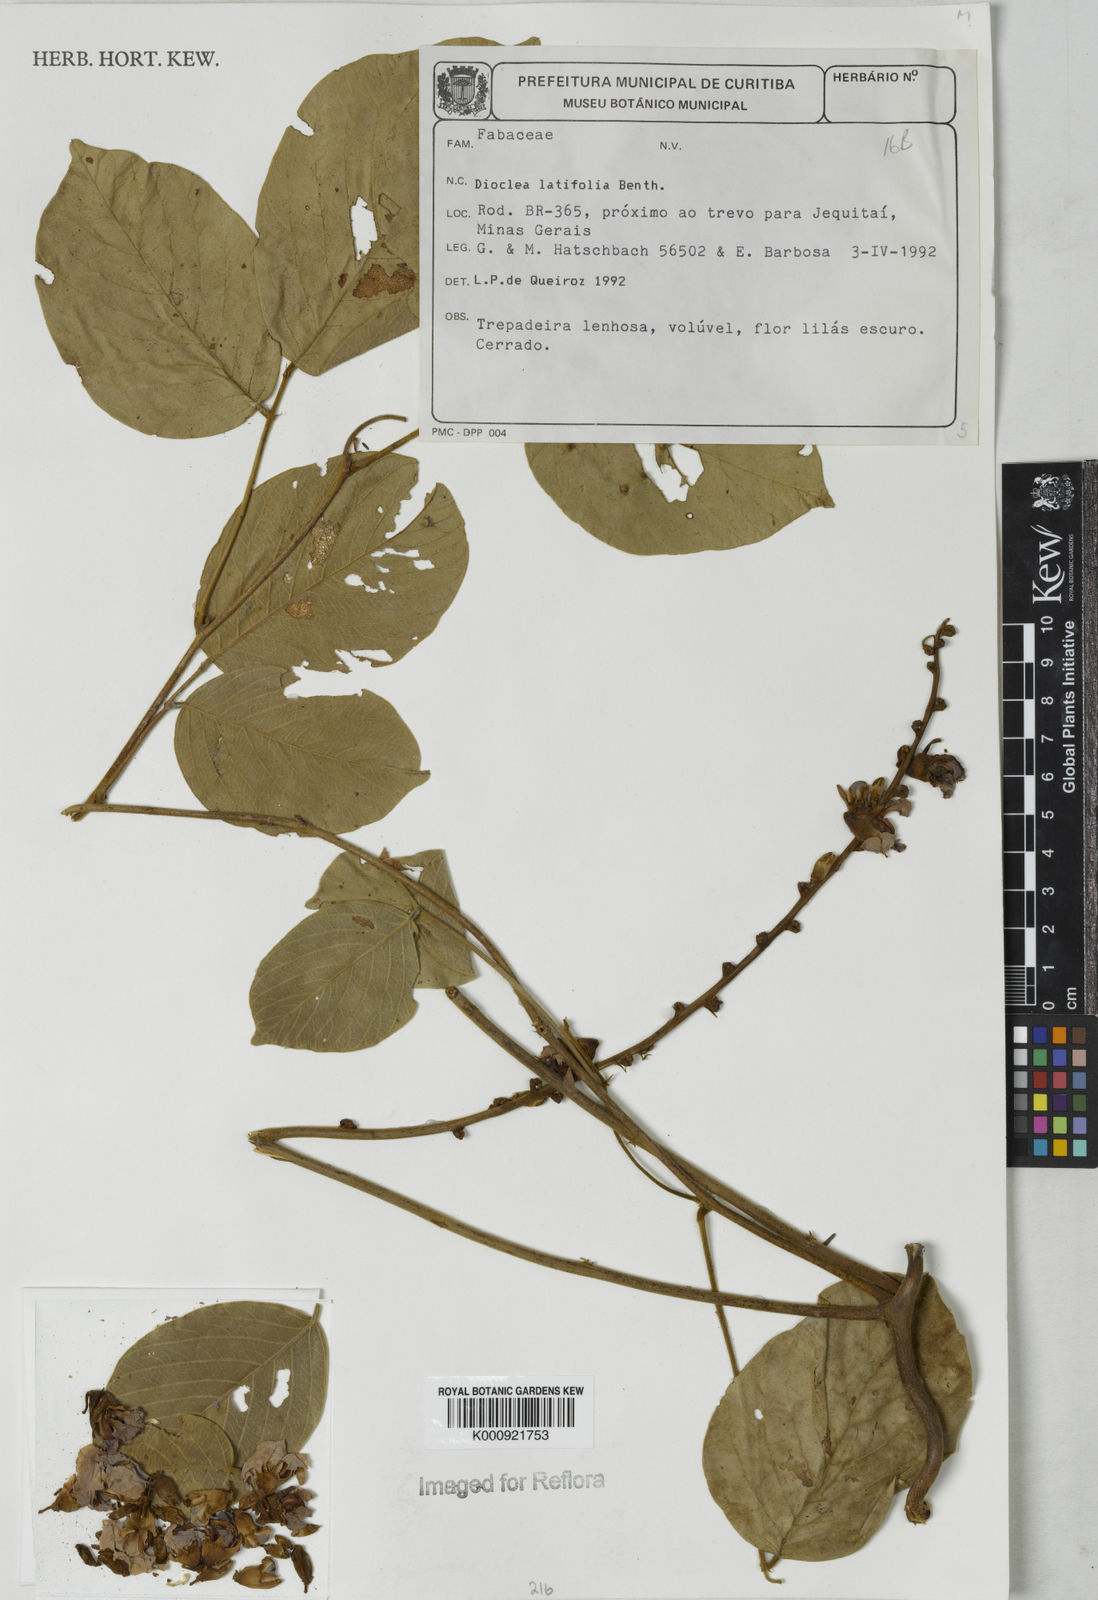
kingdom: Plantae
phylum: Tracheophyta
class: Magnoliopsida
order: Fabales
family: Fabaceae
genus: Macropsychanthus
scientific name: Macropsychanthus latifolius
